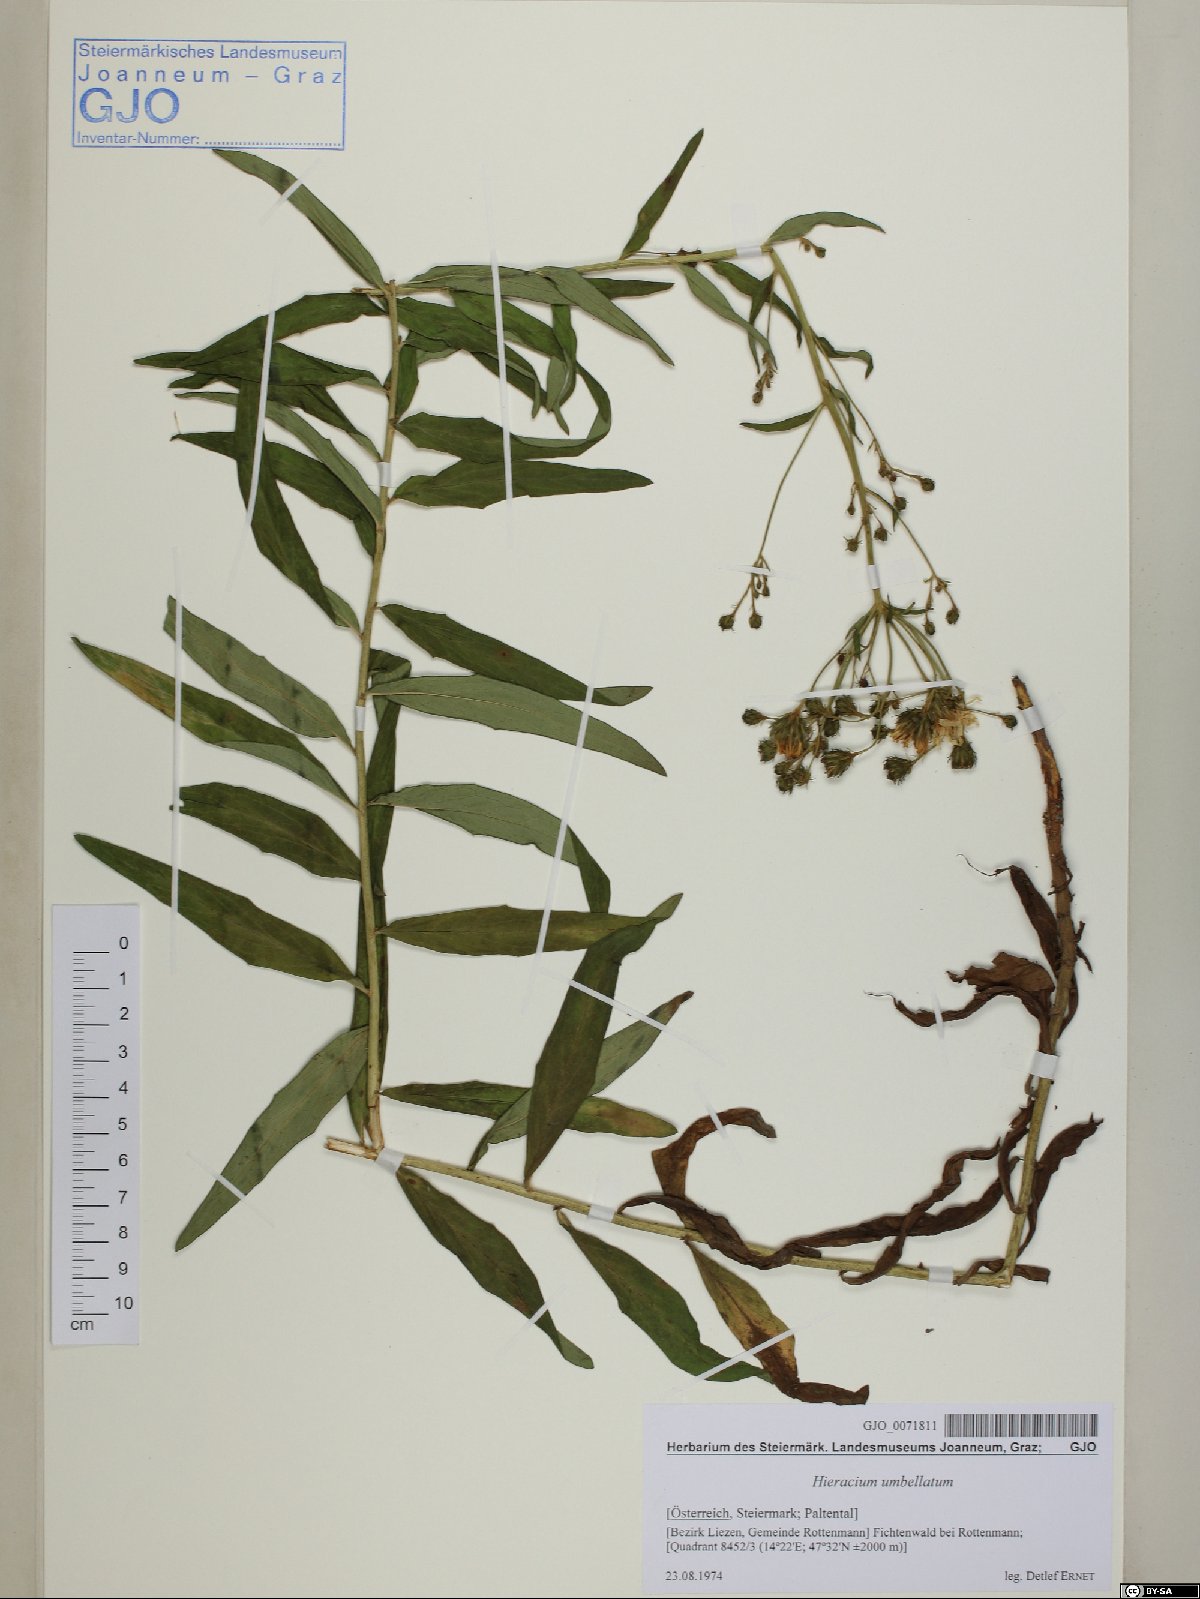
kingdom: Plantae
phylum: Tracheophyta
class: Magnoliopsida
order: Asterales
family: Asteraceae
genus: Hieracium
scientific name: Hieracium umbellatum
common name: Northern hawkweed
